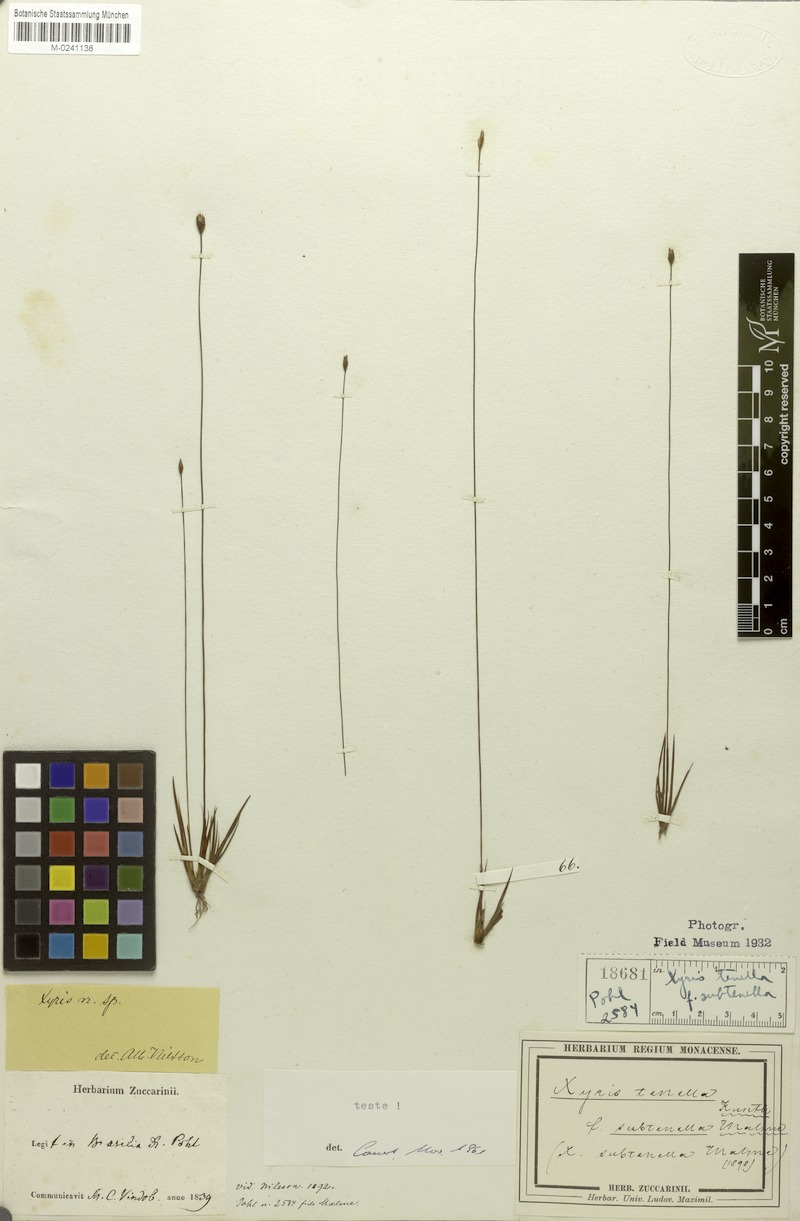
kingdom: Plantae
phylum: Tracheophyta
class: Liliopsida
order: Poales
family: Xyridaceae
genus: Xyris
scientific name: Xyris tenella
